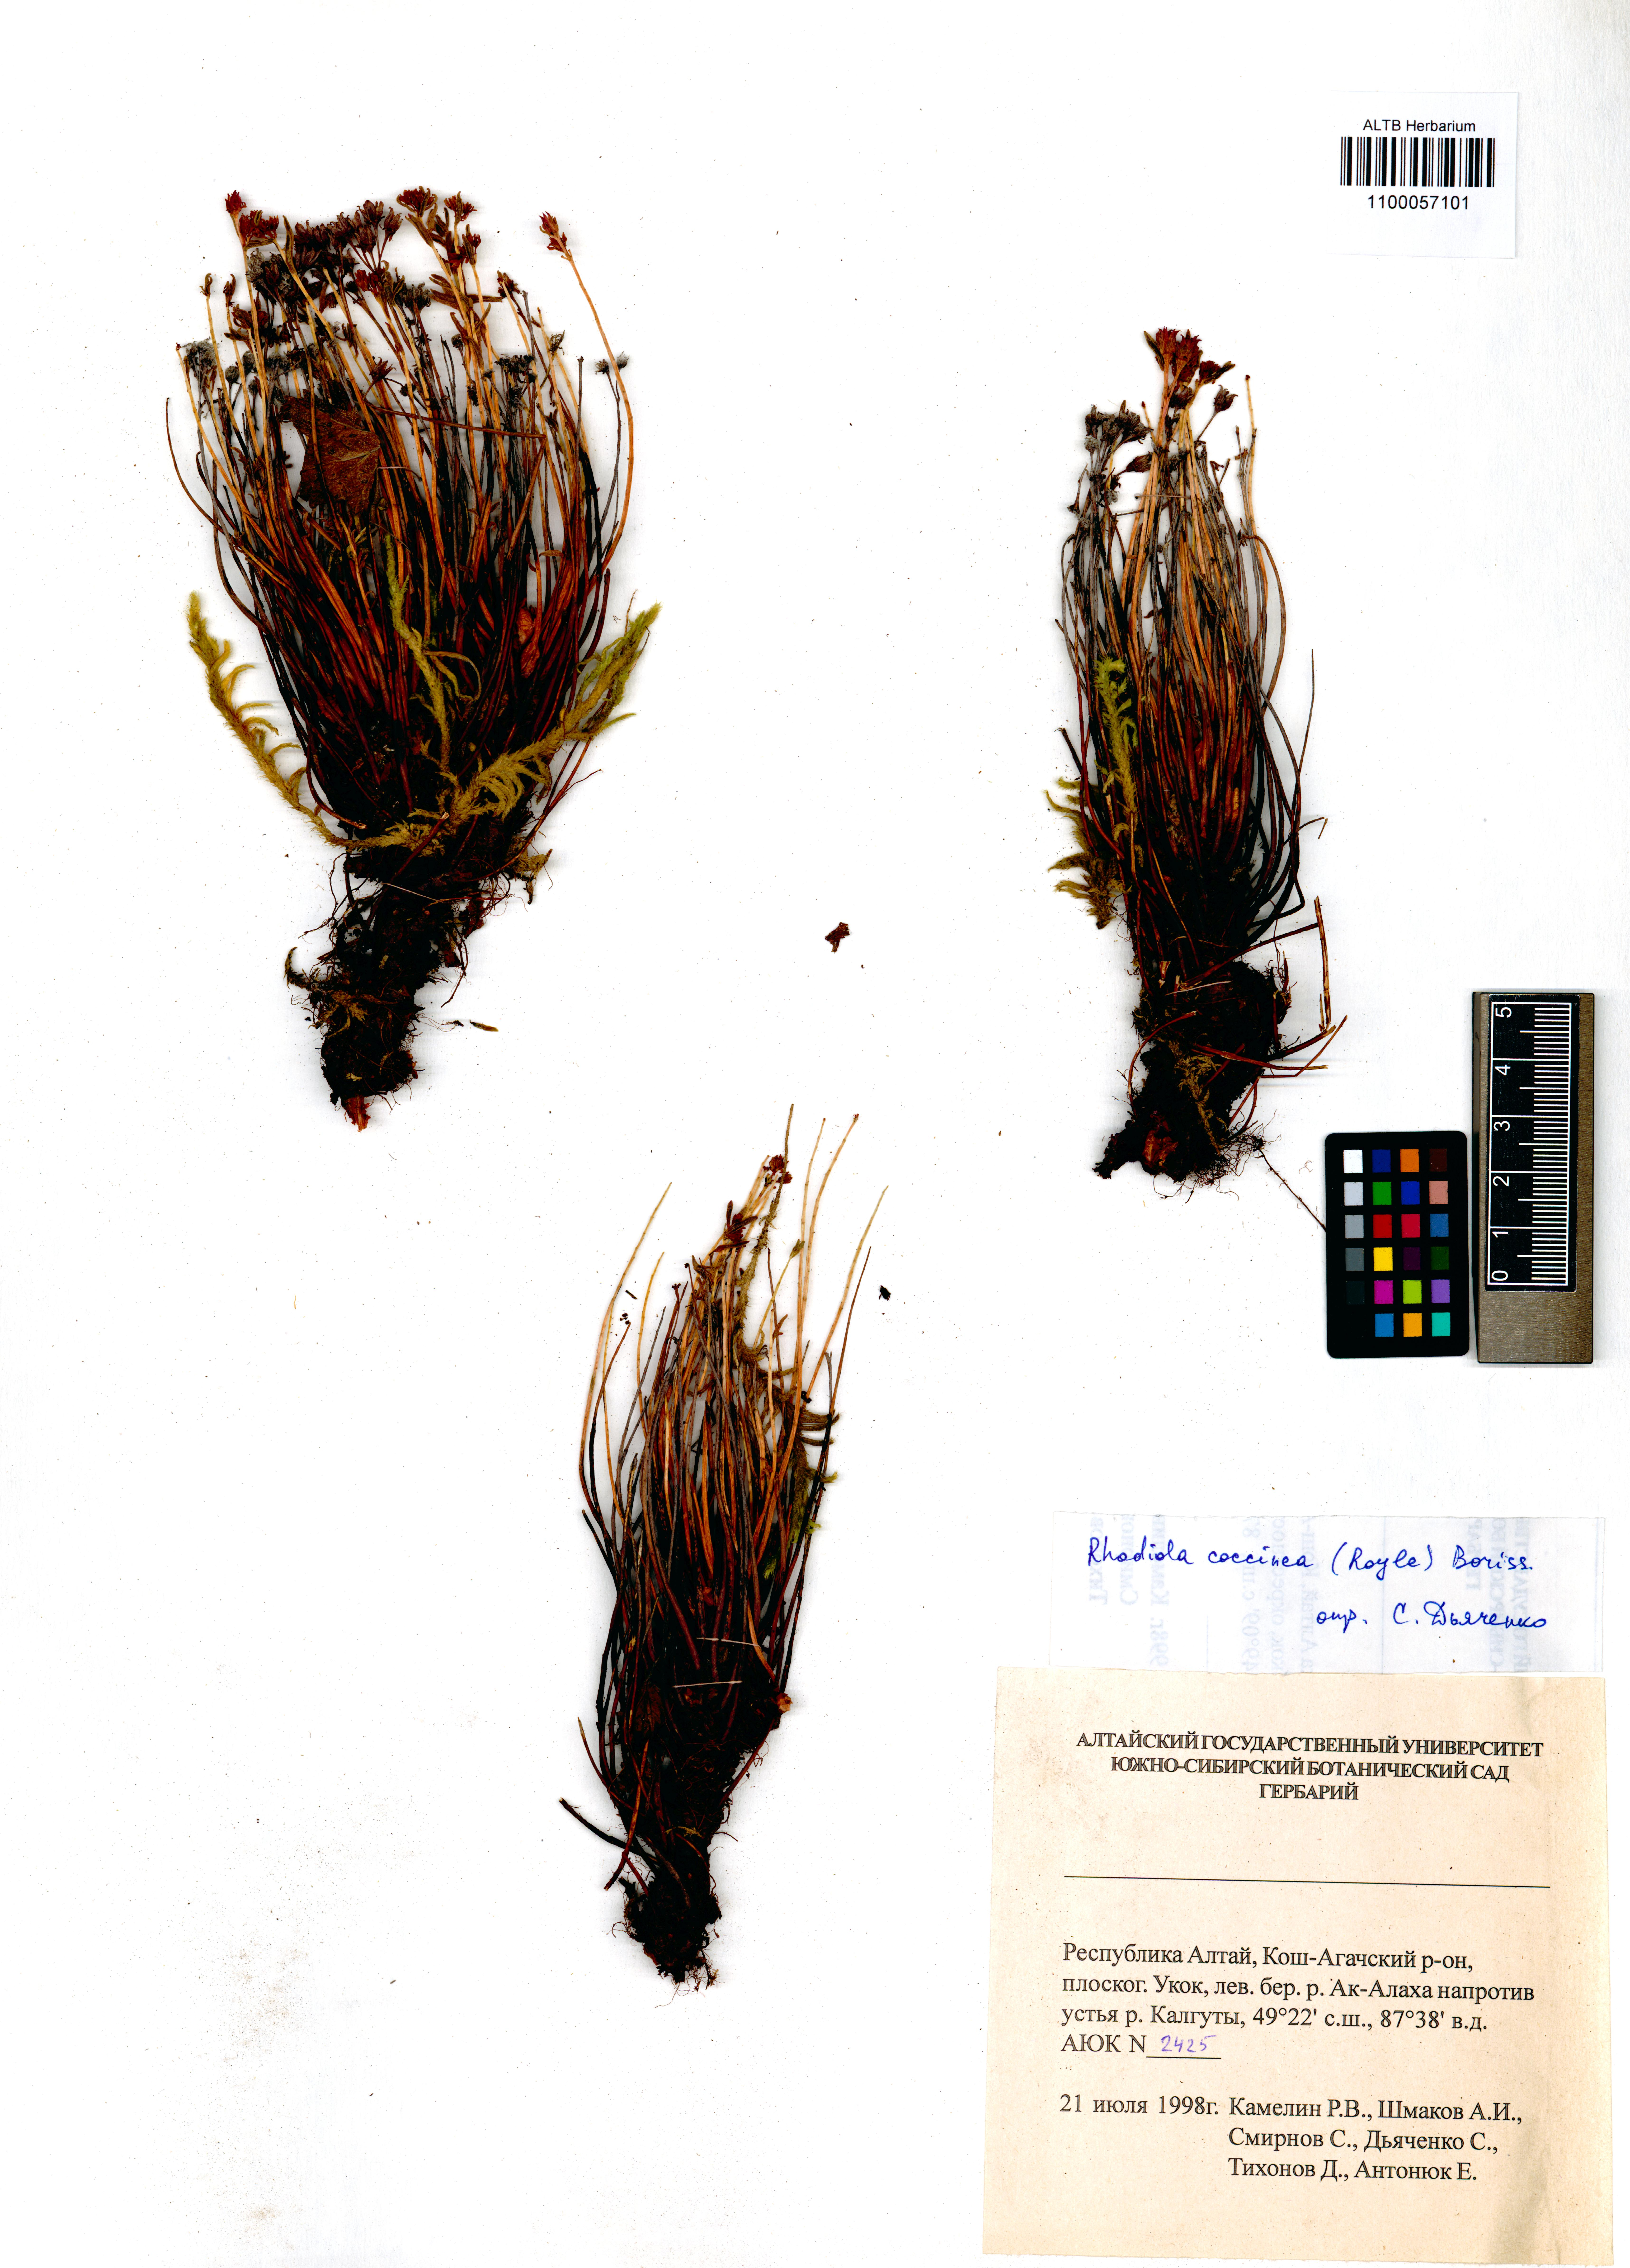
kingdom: Plantae
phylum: Tracheophyta
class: Magnoliopsida
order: Saxifragales
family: Crassulaceae
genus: Rhodiola
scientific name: Rhodiola coccinea
